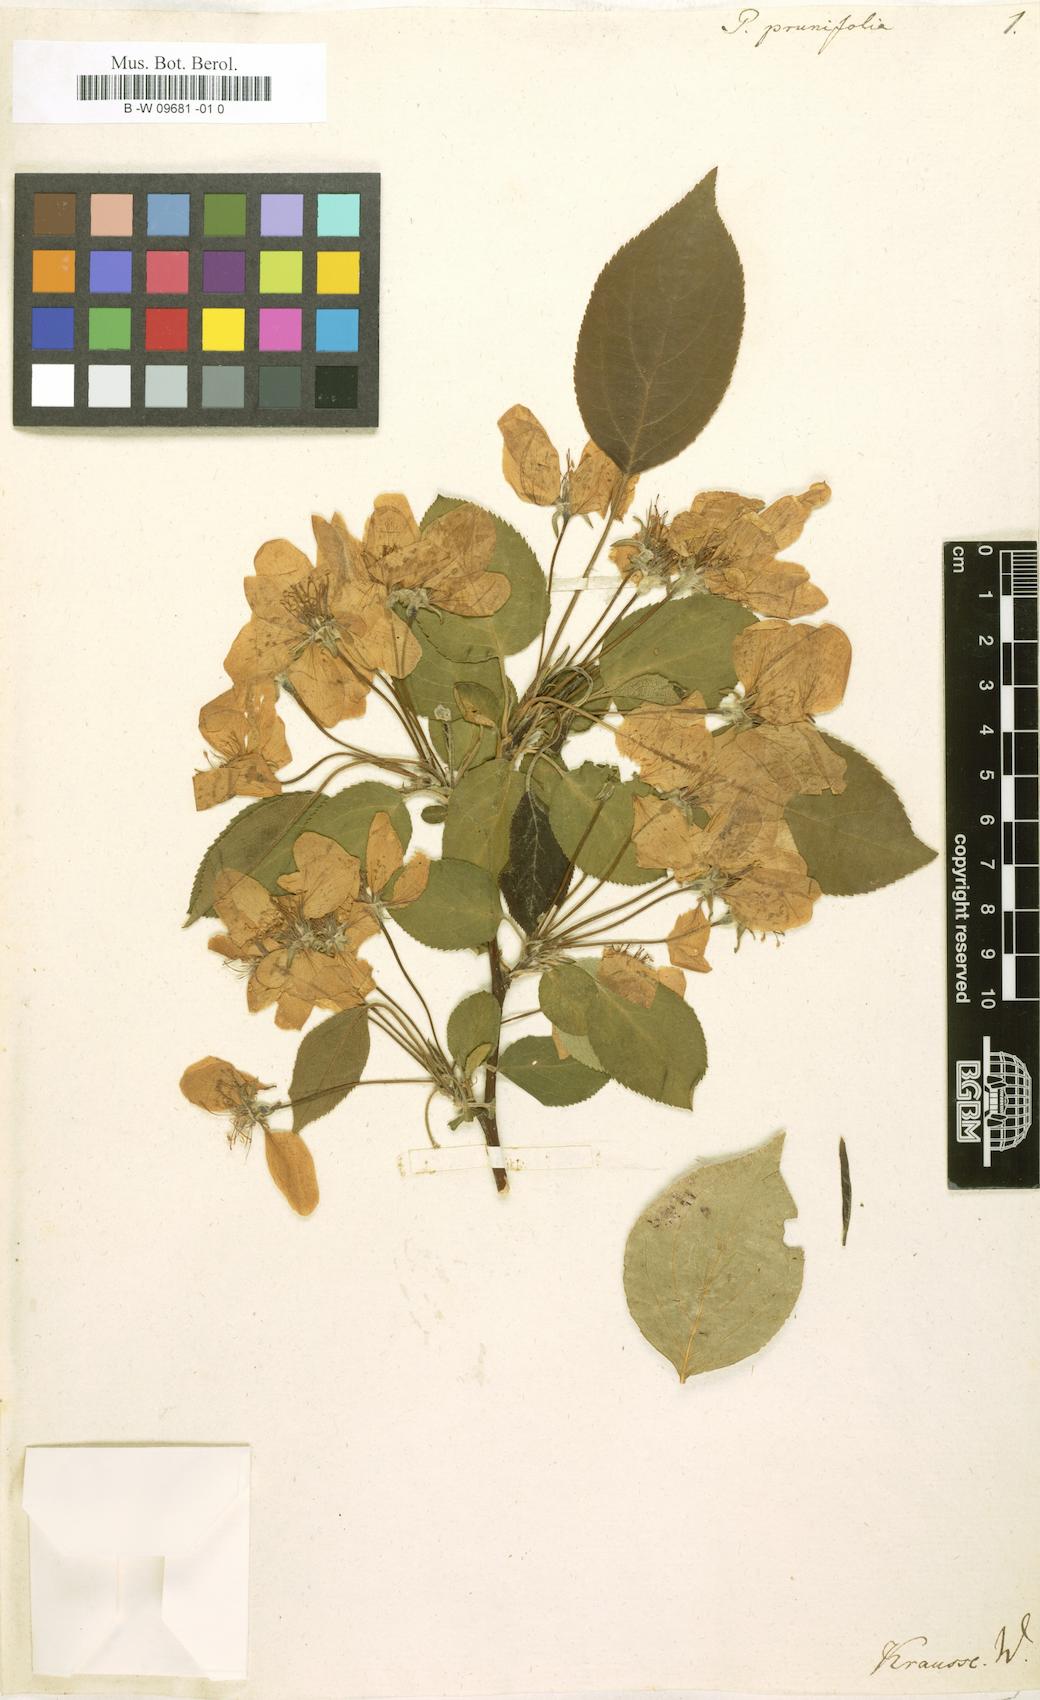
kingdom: Plantae
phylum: Tracheophyta
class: Magnoliopsida
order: Rosales
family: Rosaceae
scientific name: Rosaceae
